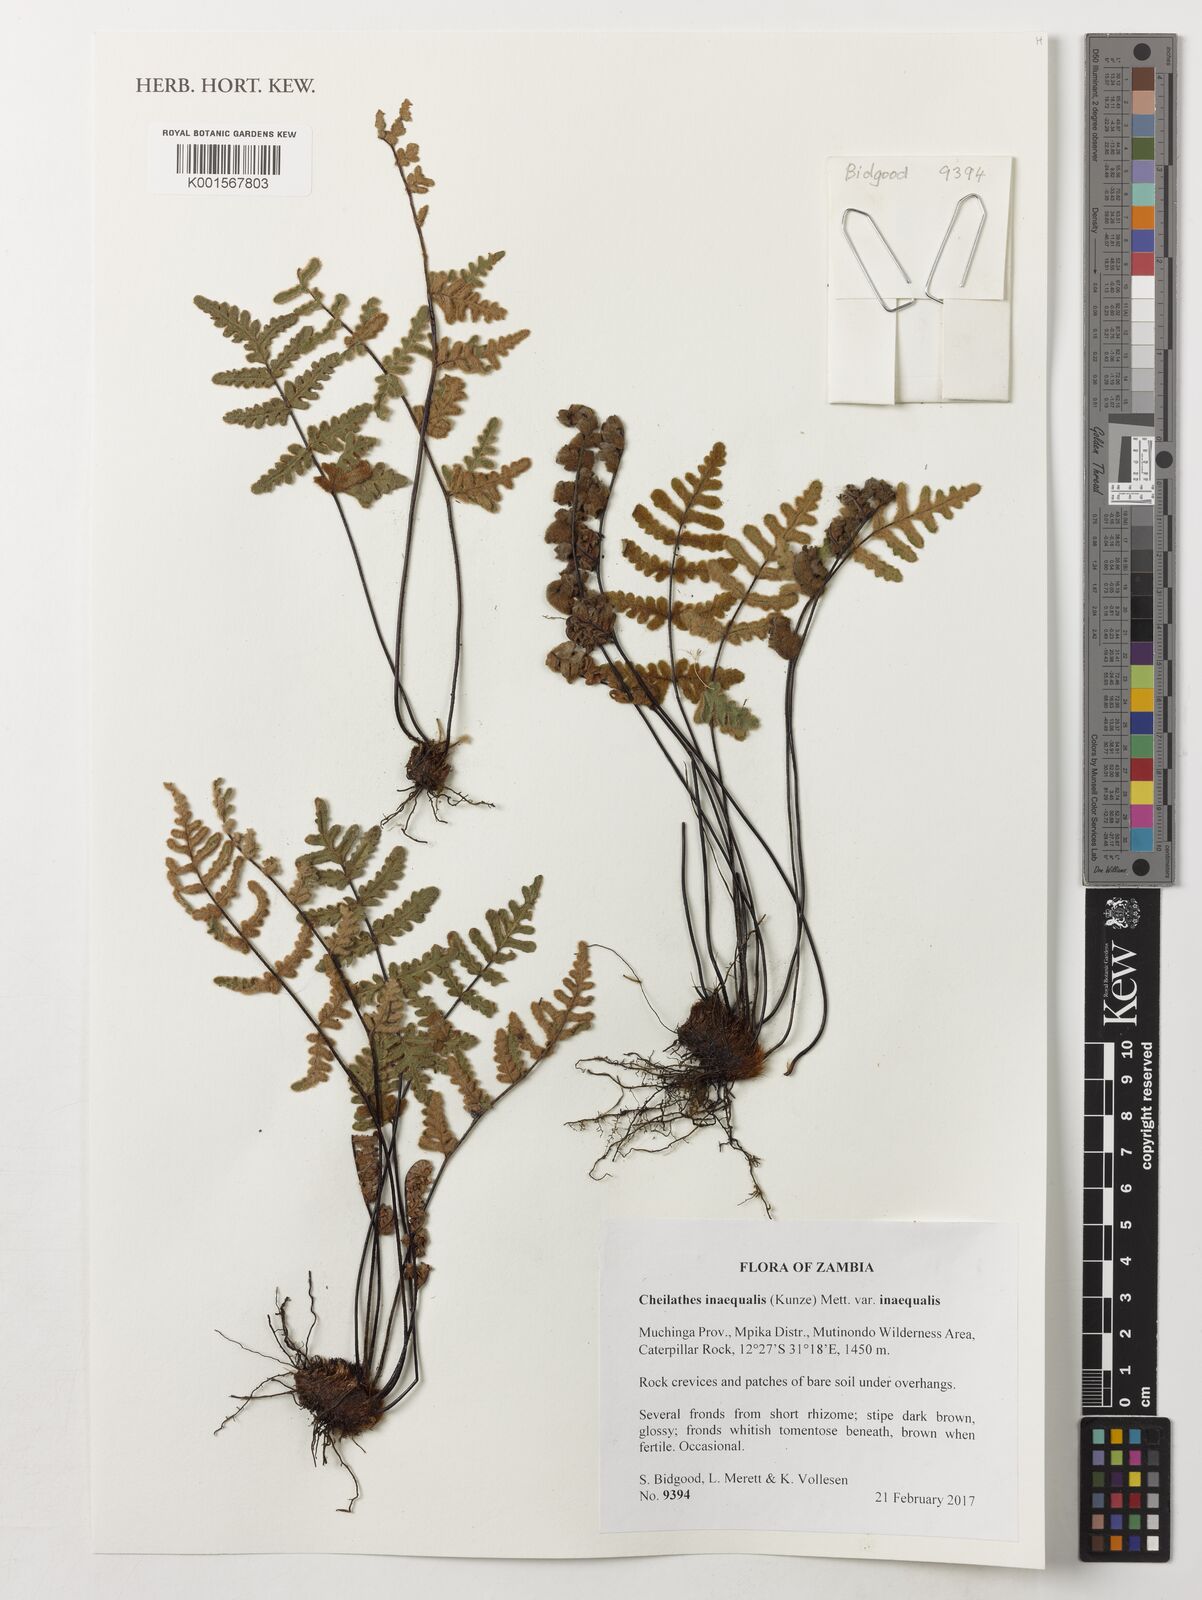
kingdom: Plantae
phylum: Tracheophyta
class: Polypodiopsida
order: Polypodiales
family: Pteridaceae
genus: Cheilanthes
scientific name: Cheilanthes inaequalis
